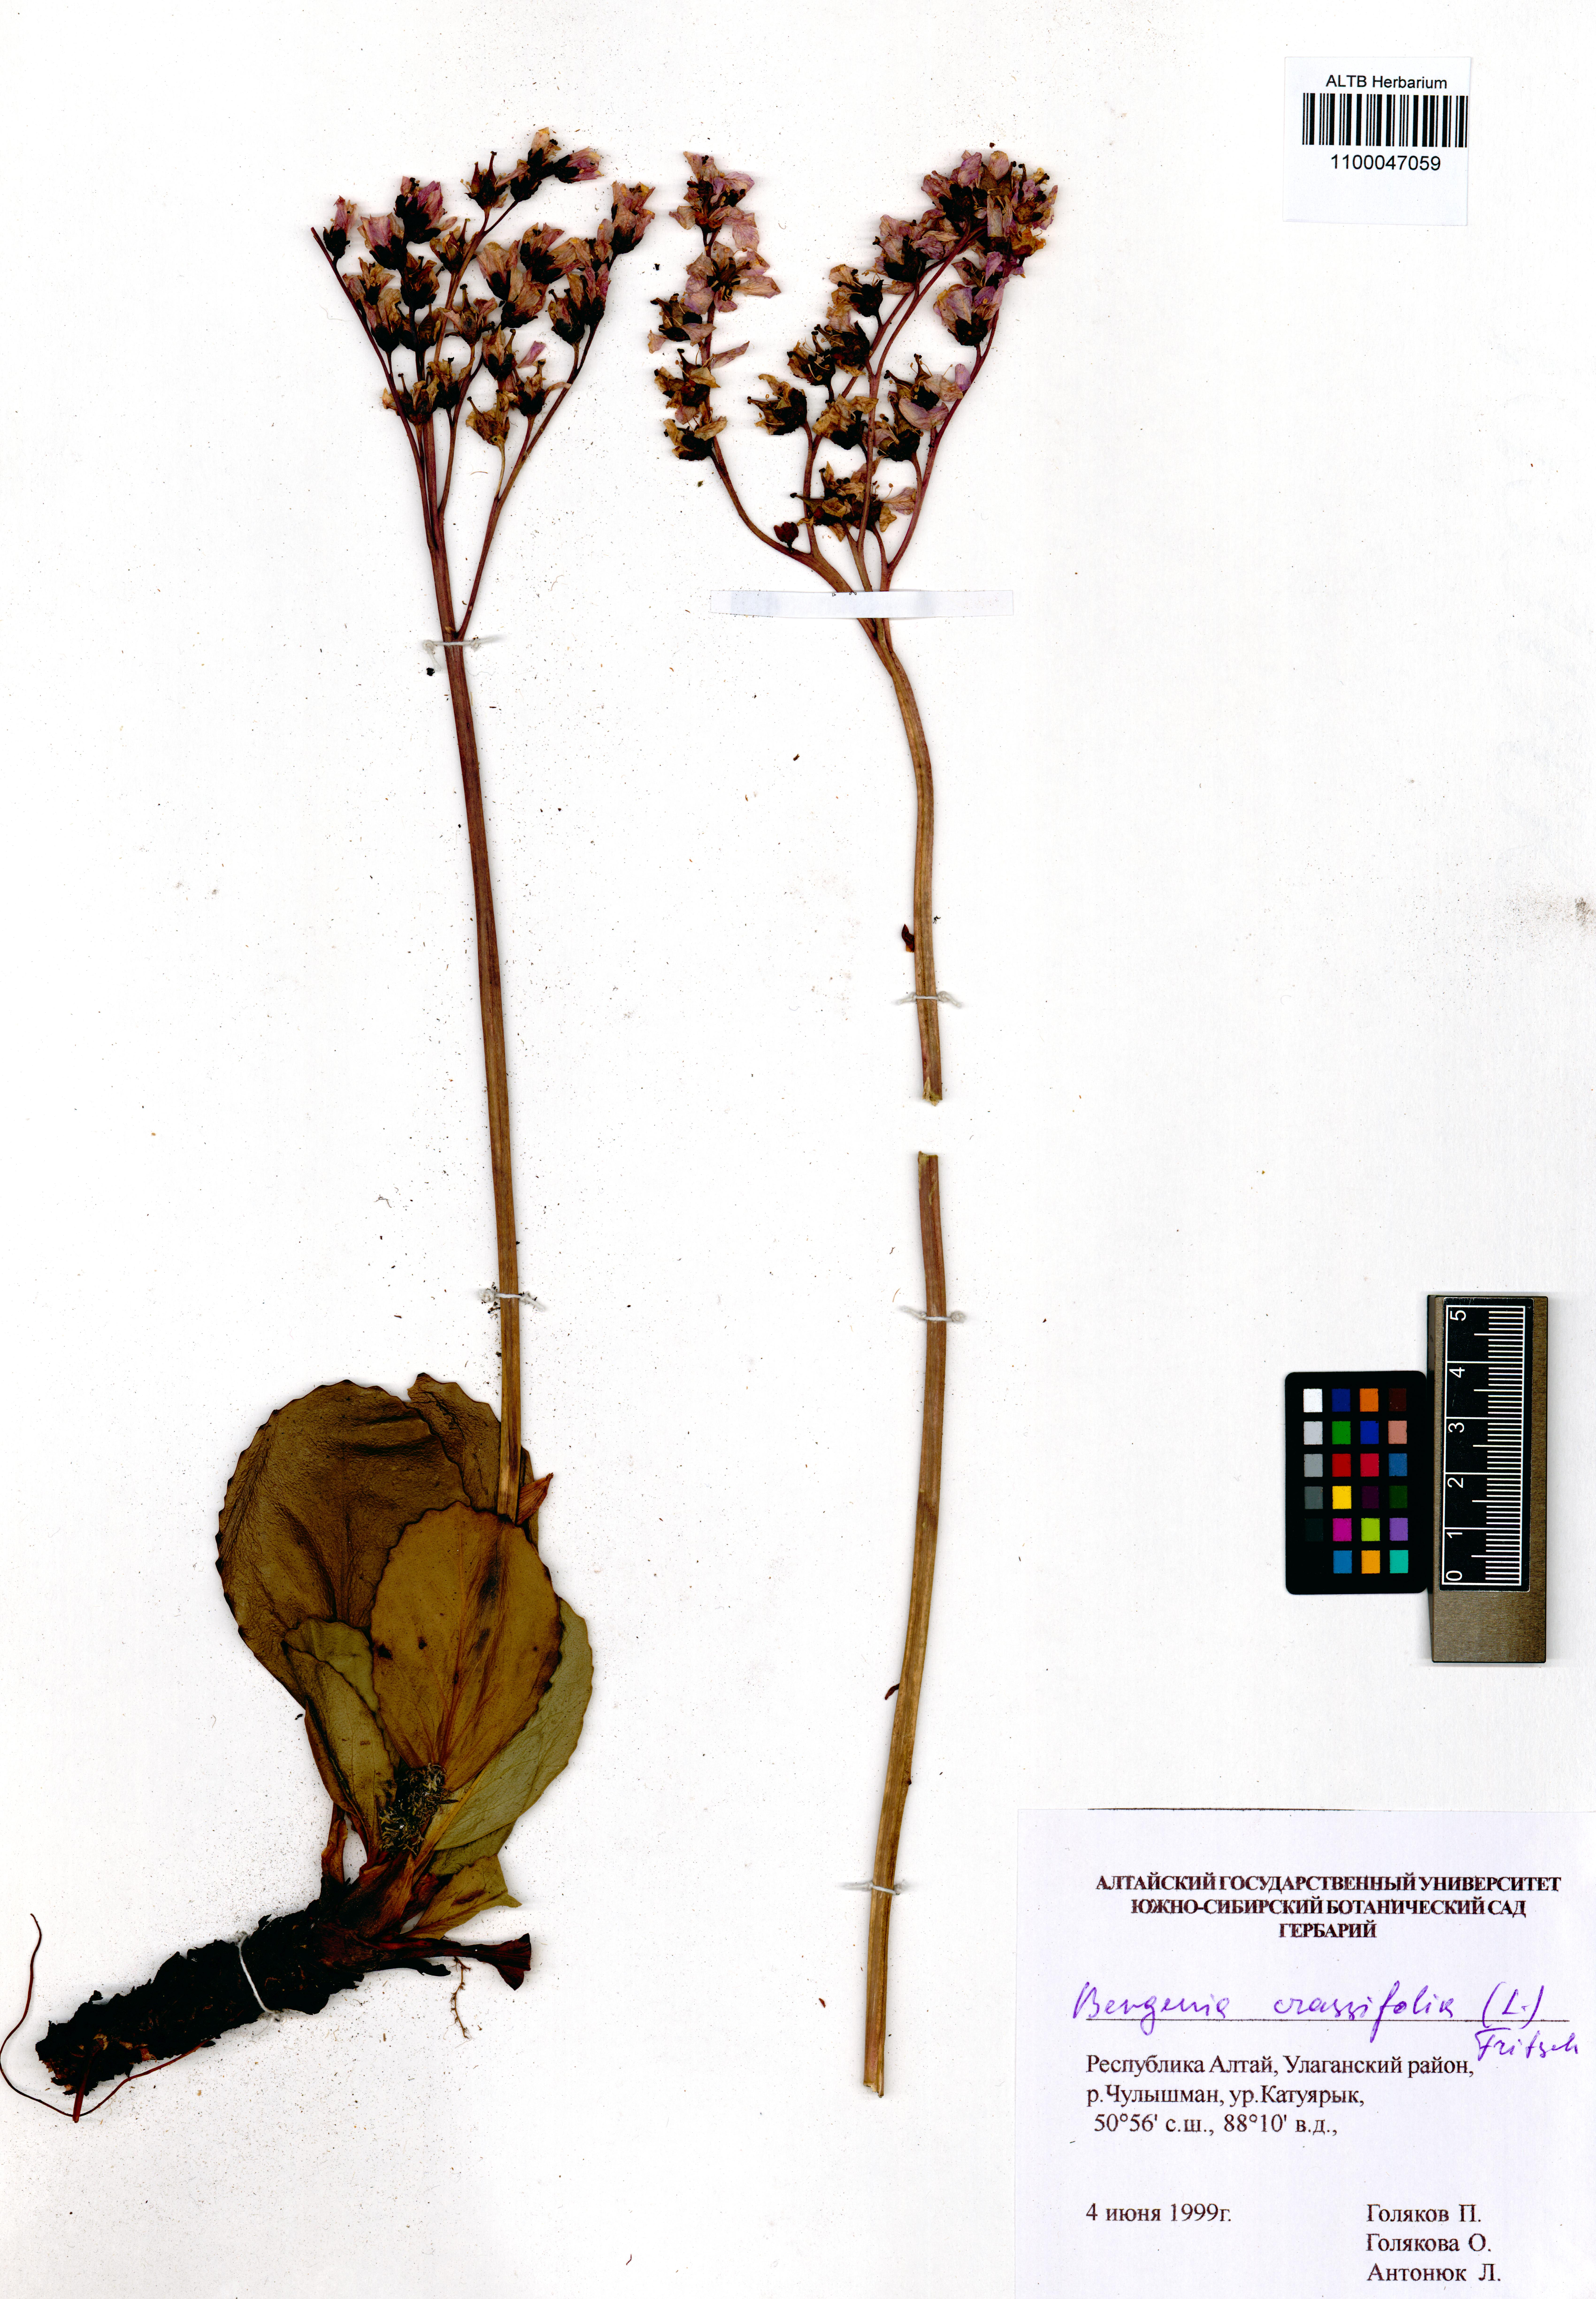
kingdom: Plantae
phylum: Tracheophyta
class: Magnoliopsida
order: Saxifragales
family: Saxifragaceae
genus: Bergenia
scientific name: Bergenia crassifolia
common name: Elephant-ears
